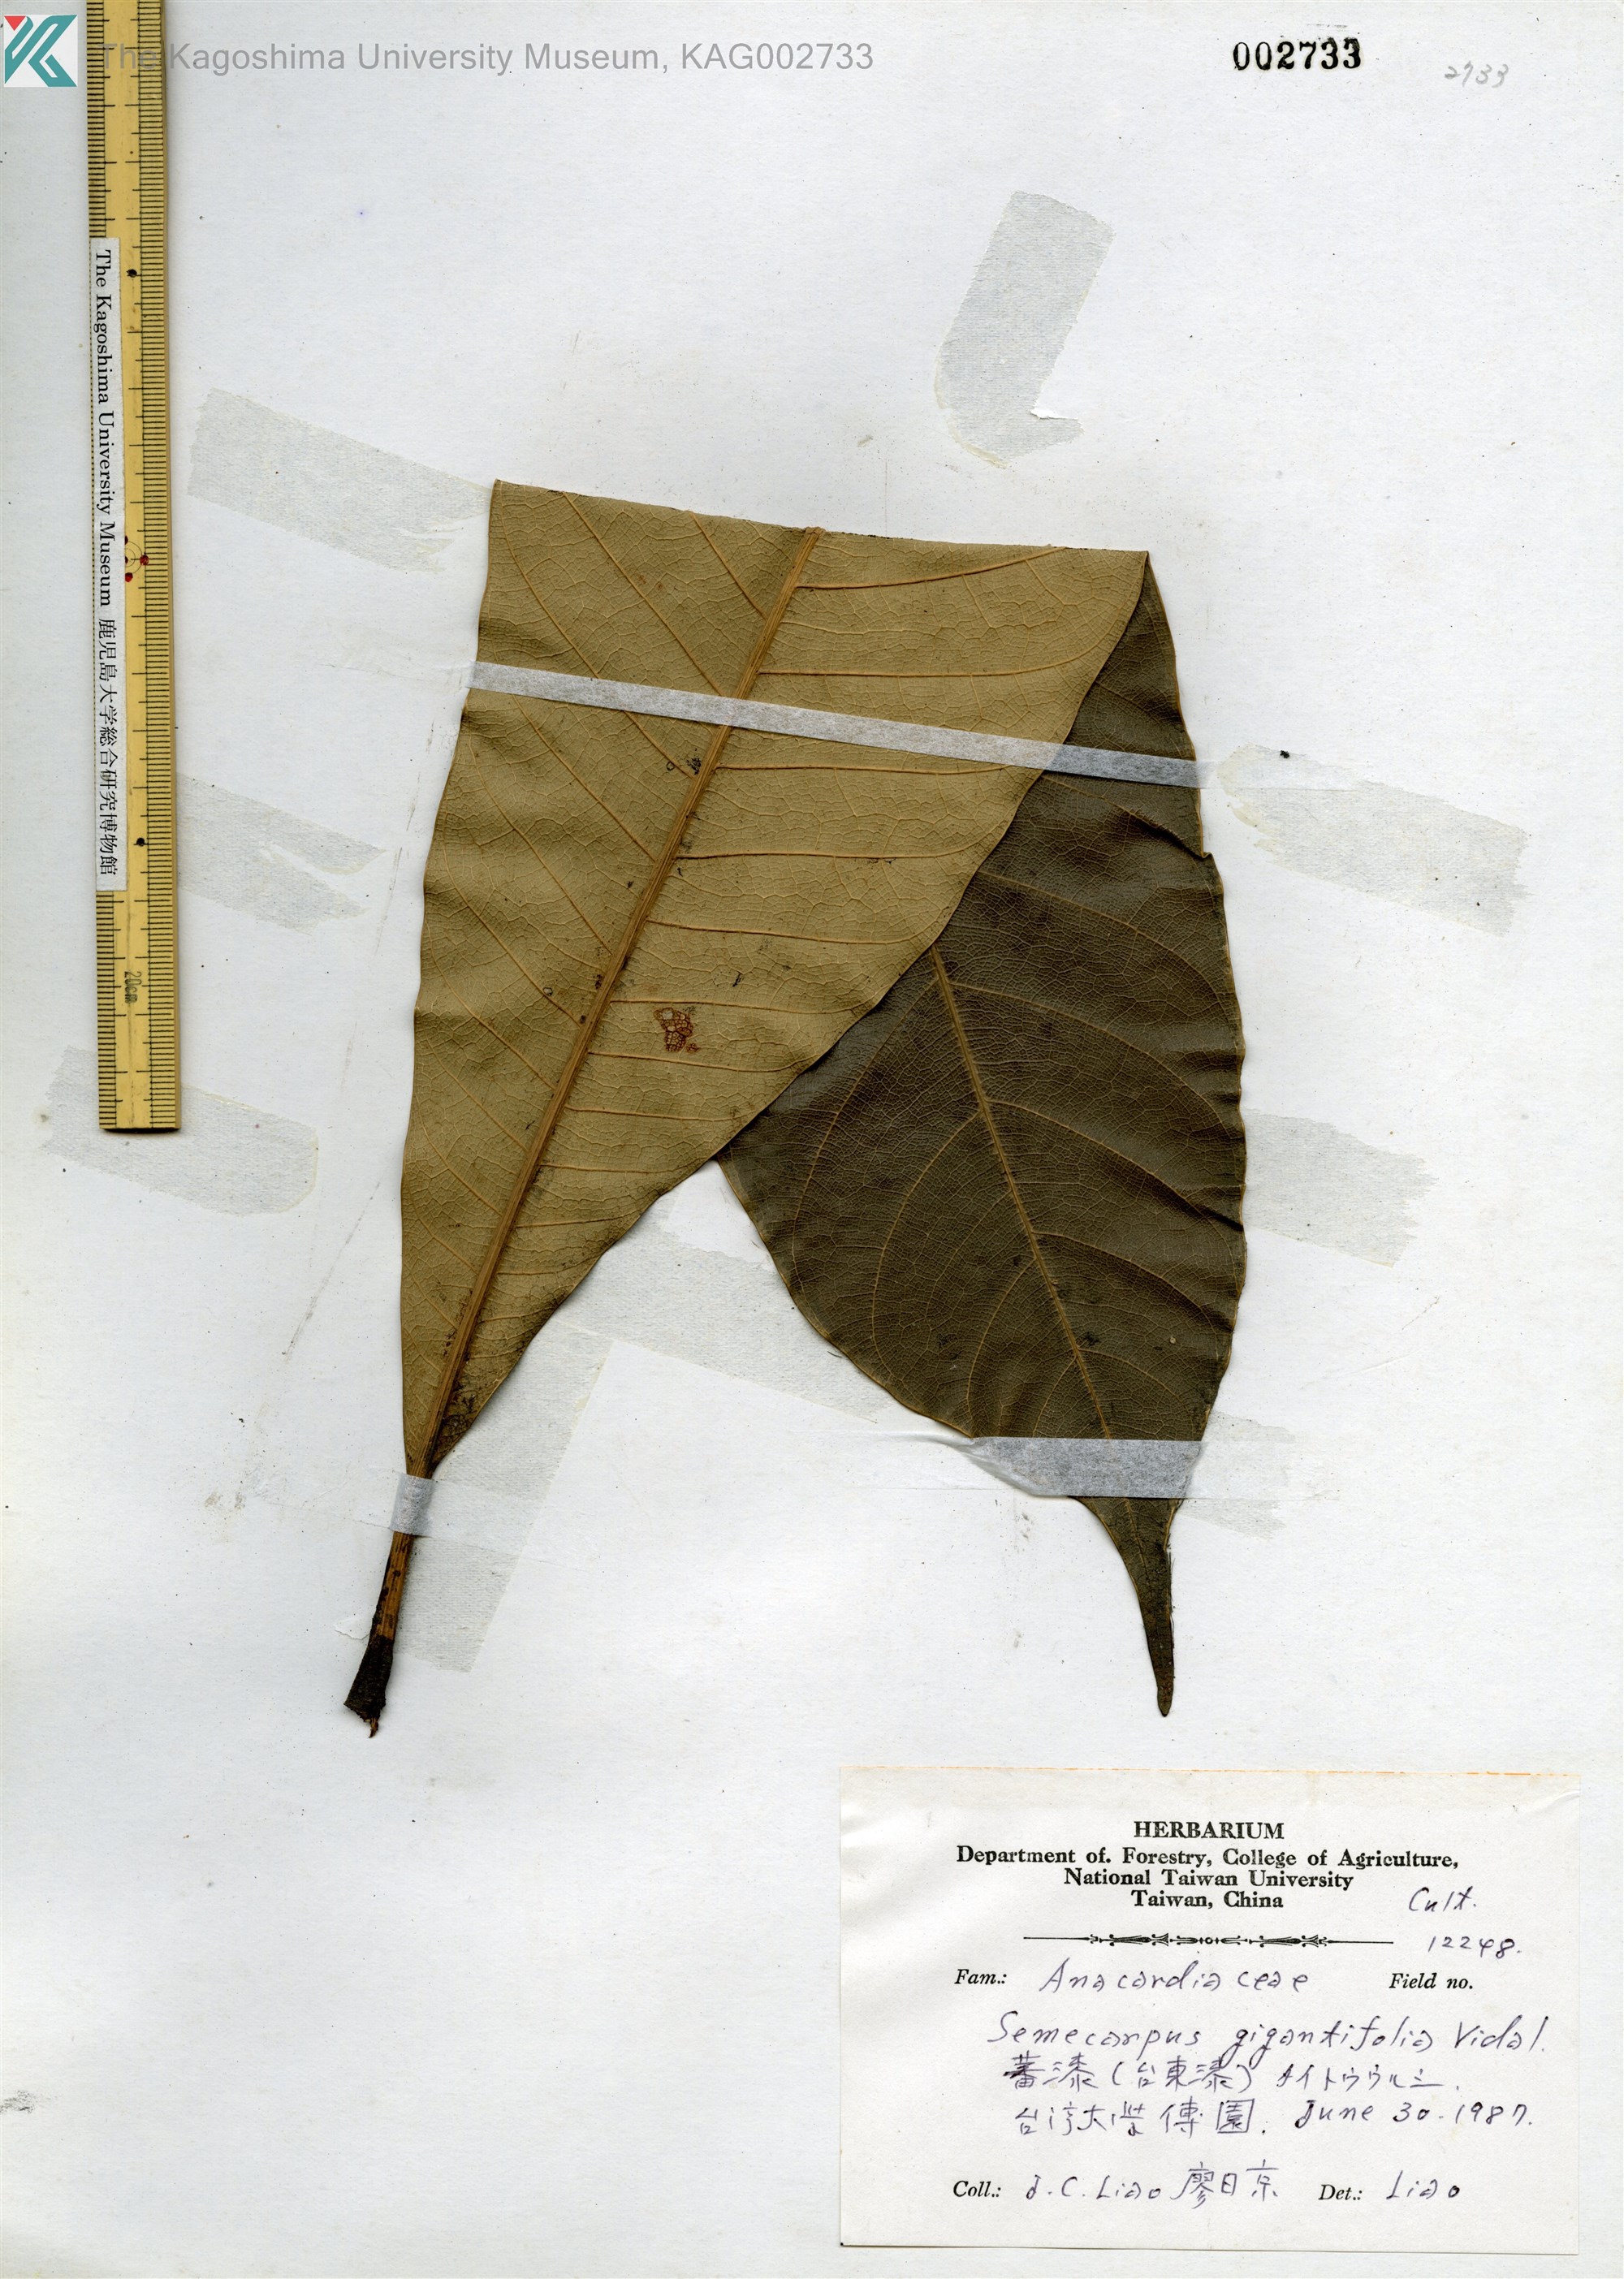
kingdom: Plantae
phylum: Tracheophyta
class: Magnoliopsida
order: Sapindales
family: Anacardiaceae
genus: Semecarpus
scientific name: Semecarpus longifolius
